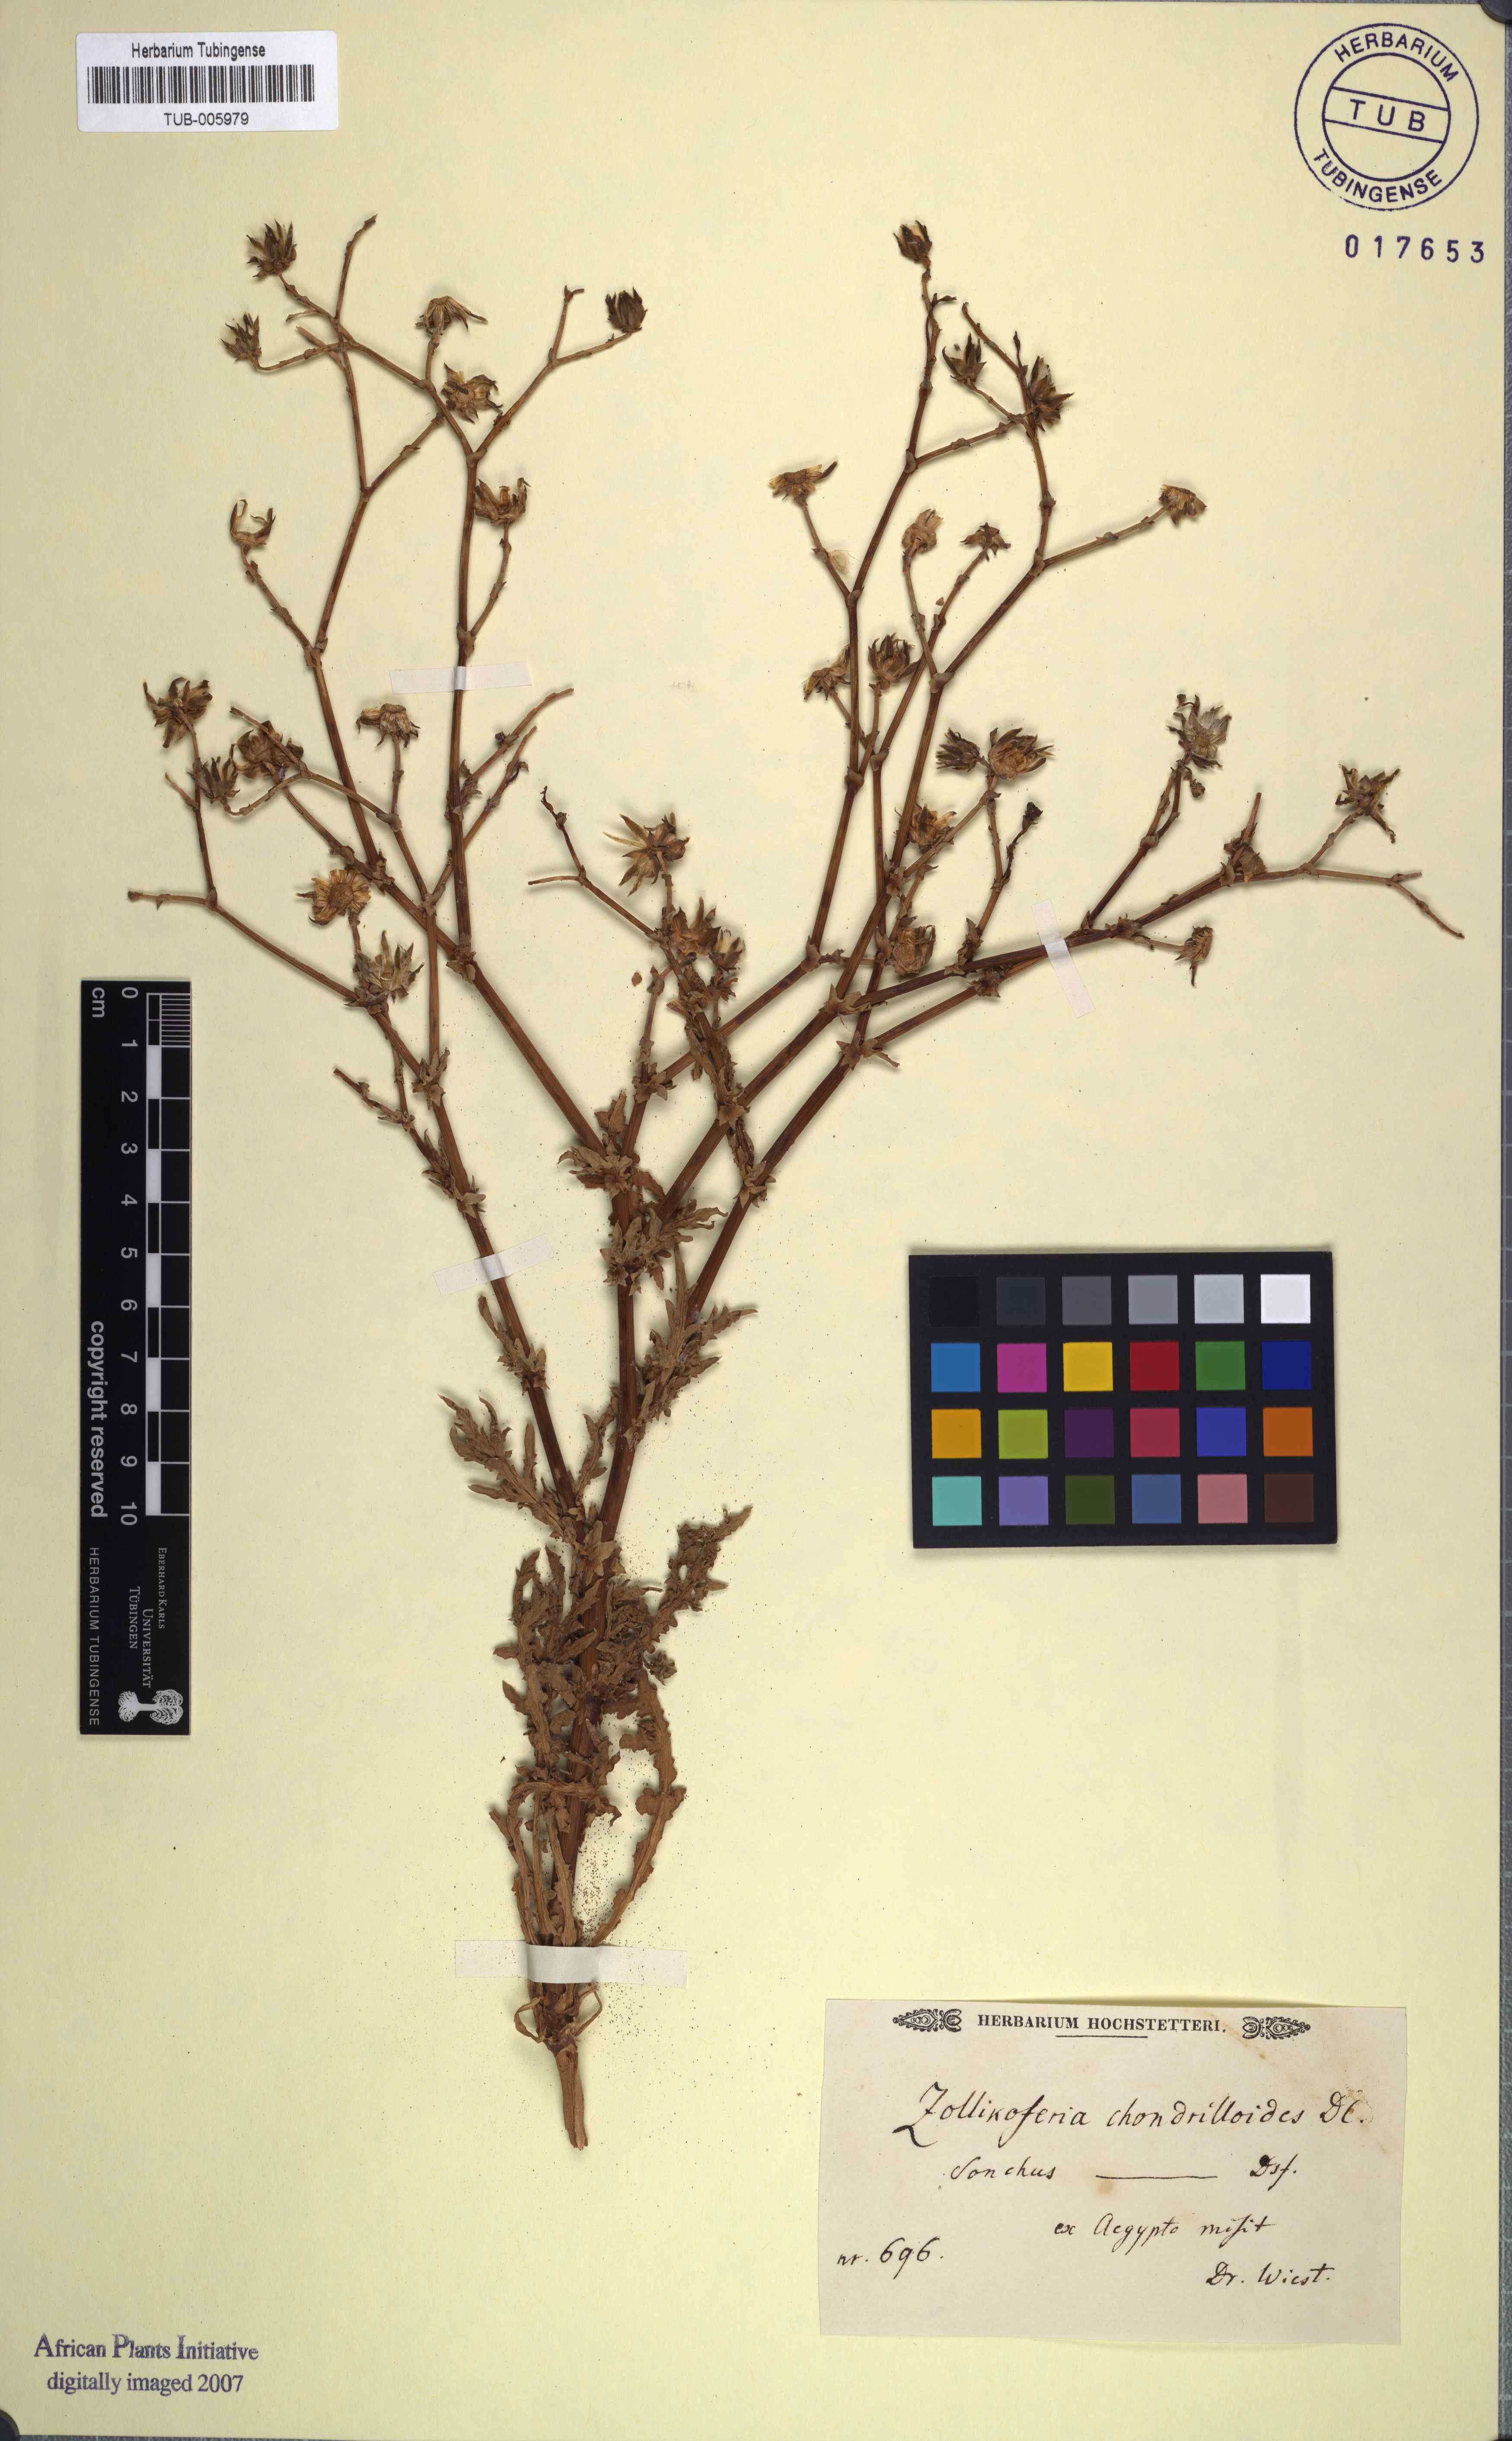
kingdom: Plantae
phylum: Tracheophyta
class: Magnoliopsida
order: Asterales
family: Asteraceae
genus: Launaea
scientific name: Launaea fragilis
